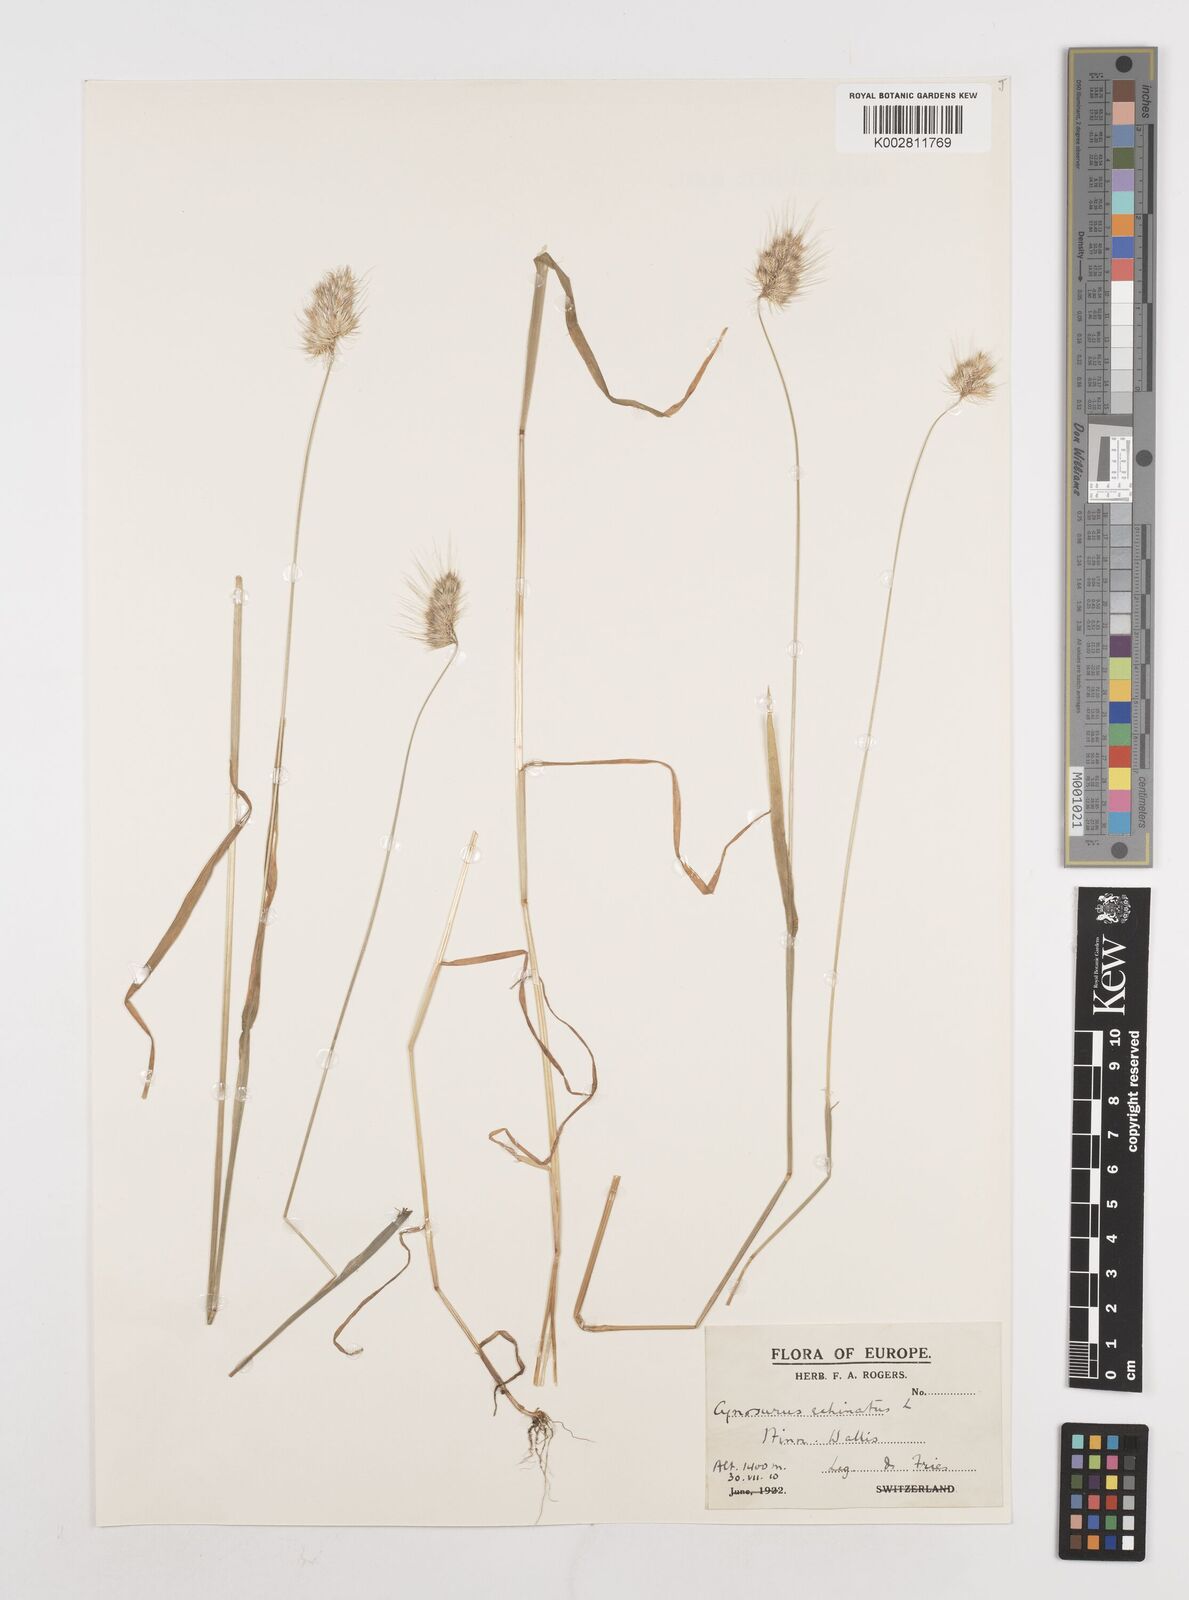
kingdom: Plantae
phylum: Tracheophyta
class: Liliopsida
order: Poales
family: Poaceae
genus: Cynosurus
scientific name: Cynosurus echinatus
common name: Rough dog's-tail
